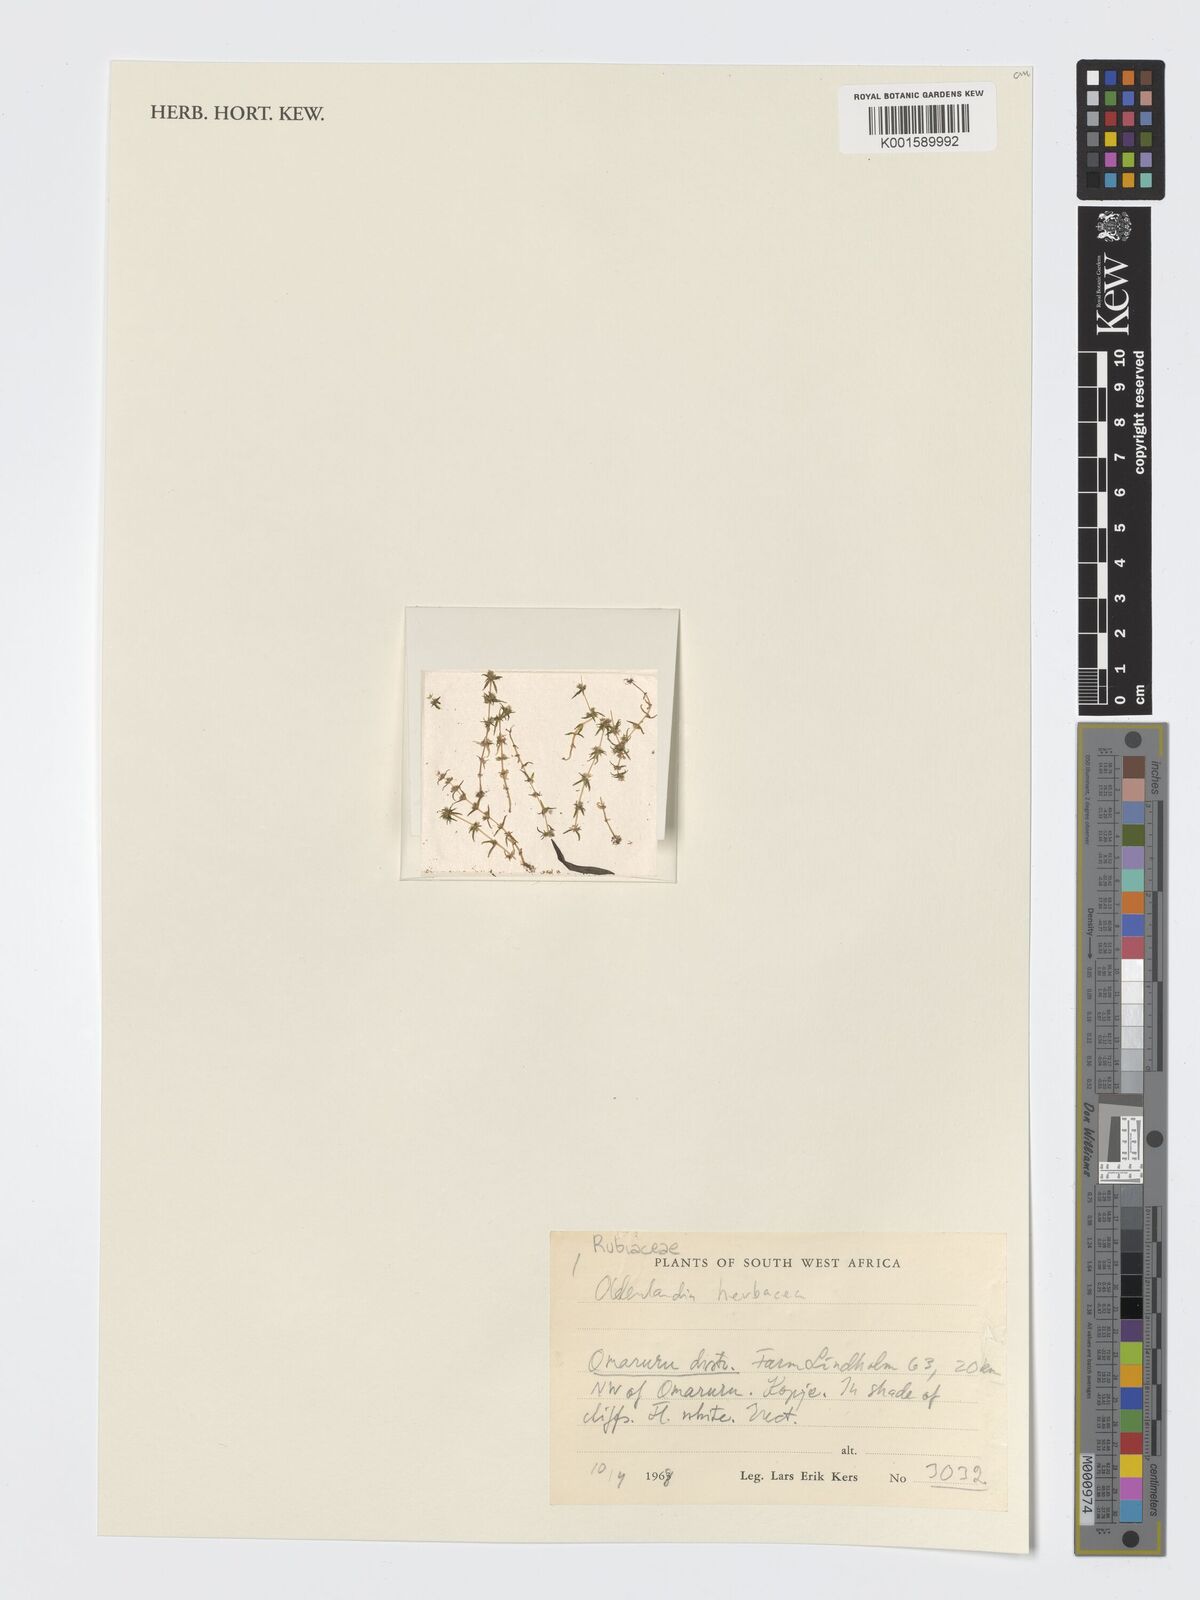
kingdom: Plantae
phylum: Tracheophyta
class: Magnoliopsida
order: Gentianales
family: Rubiaceae
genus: Oldenlandia
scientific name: Oldenlandia herbacea
